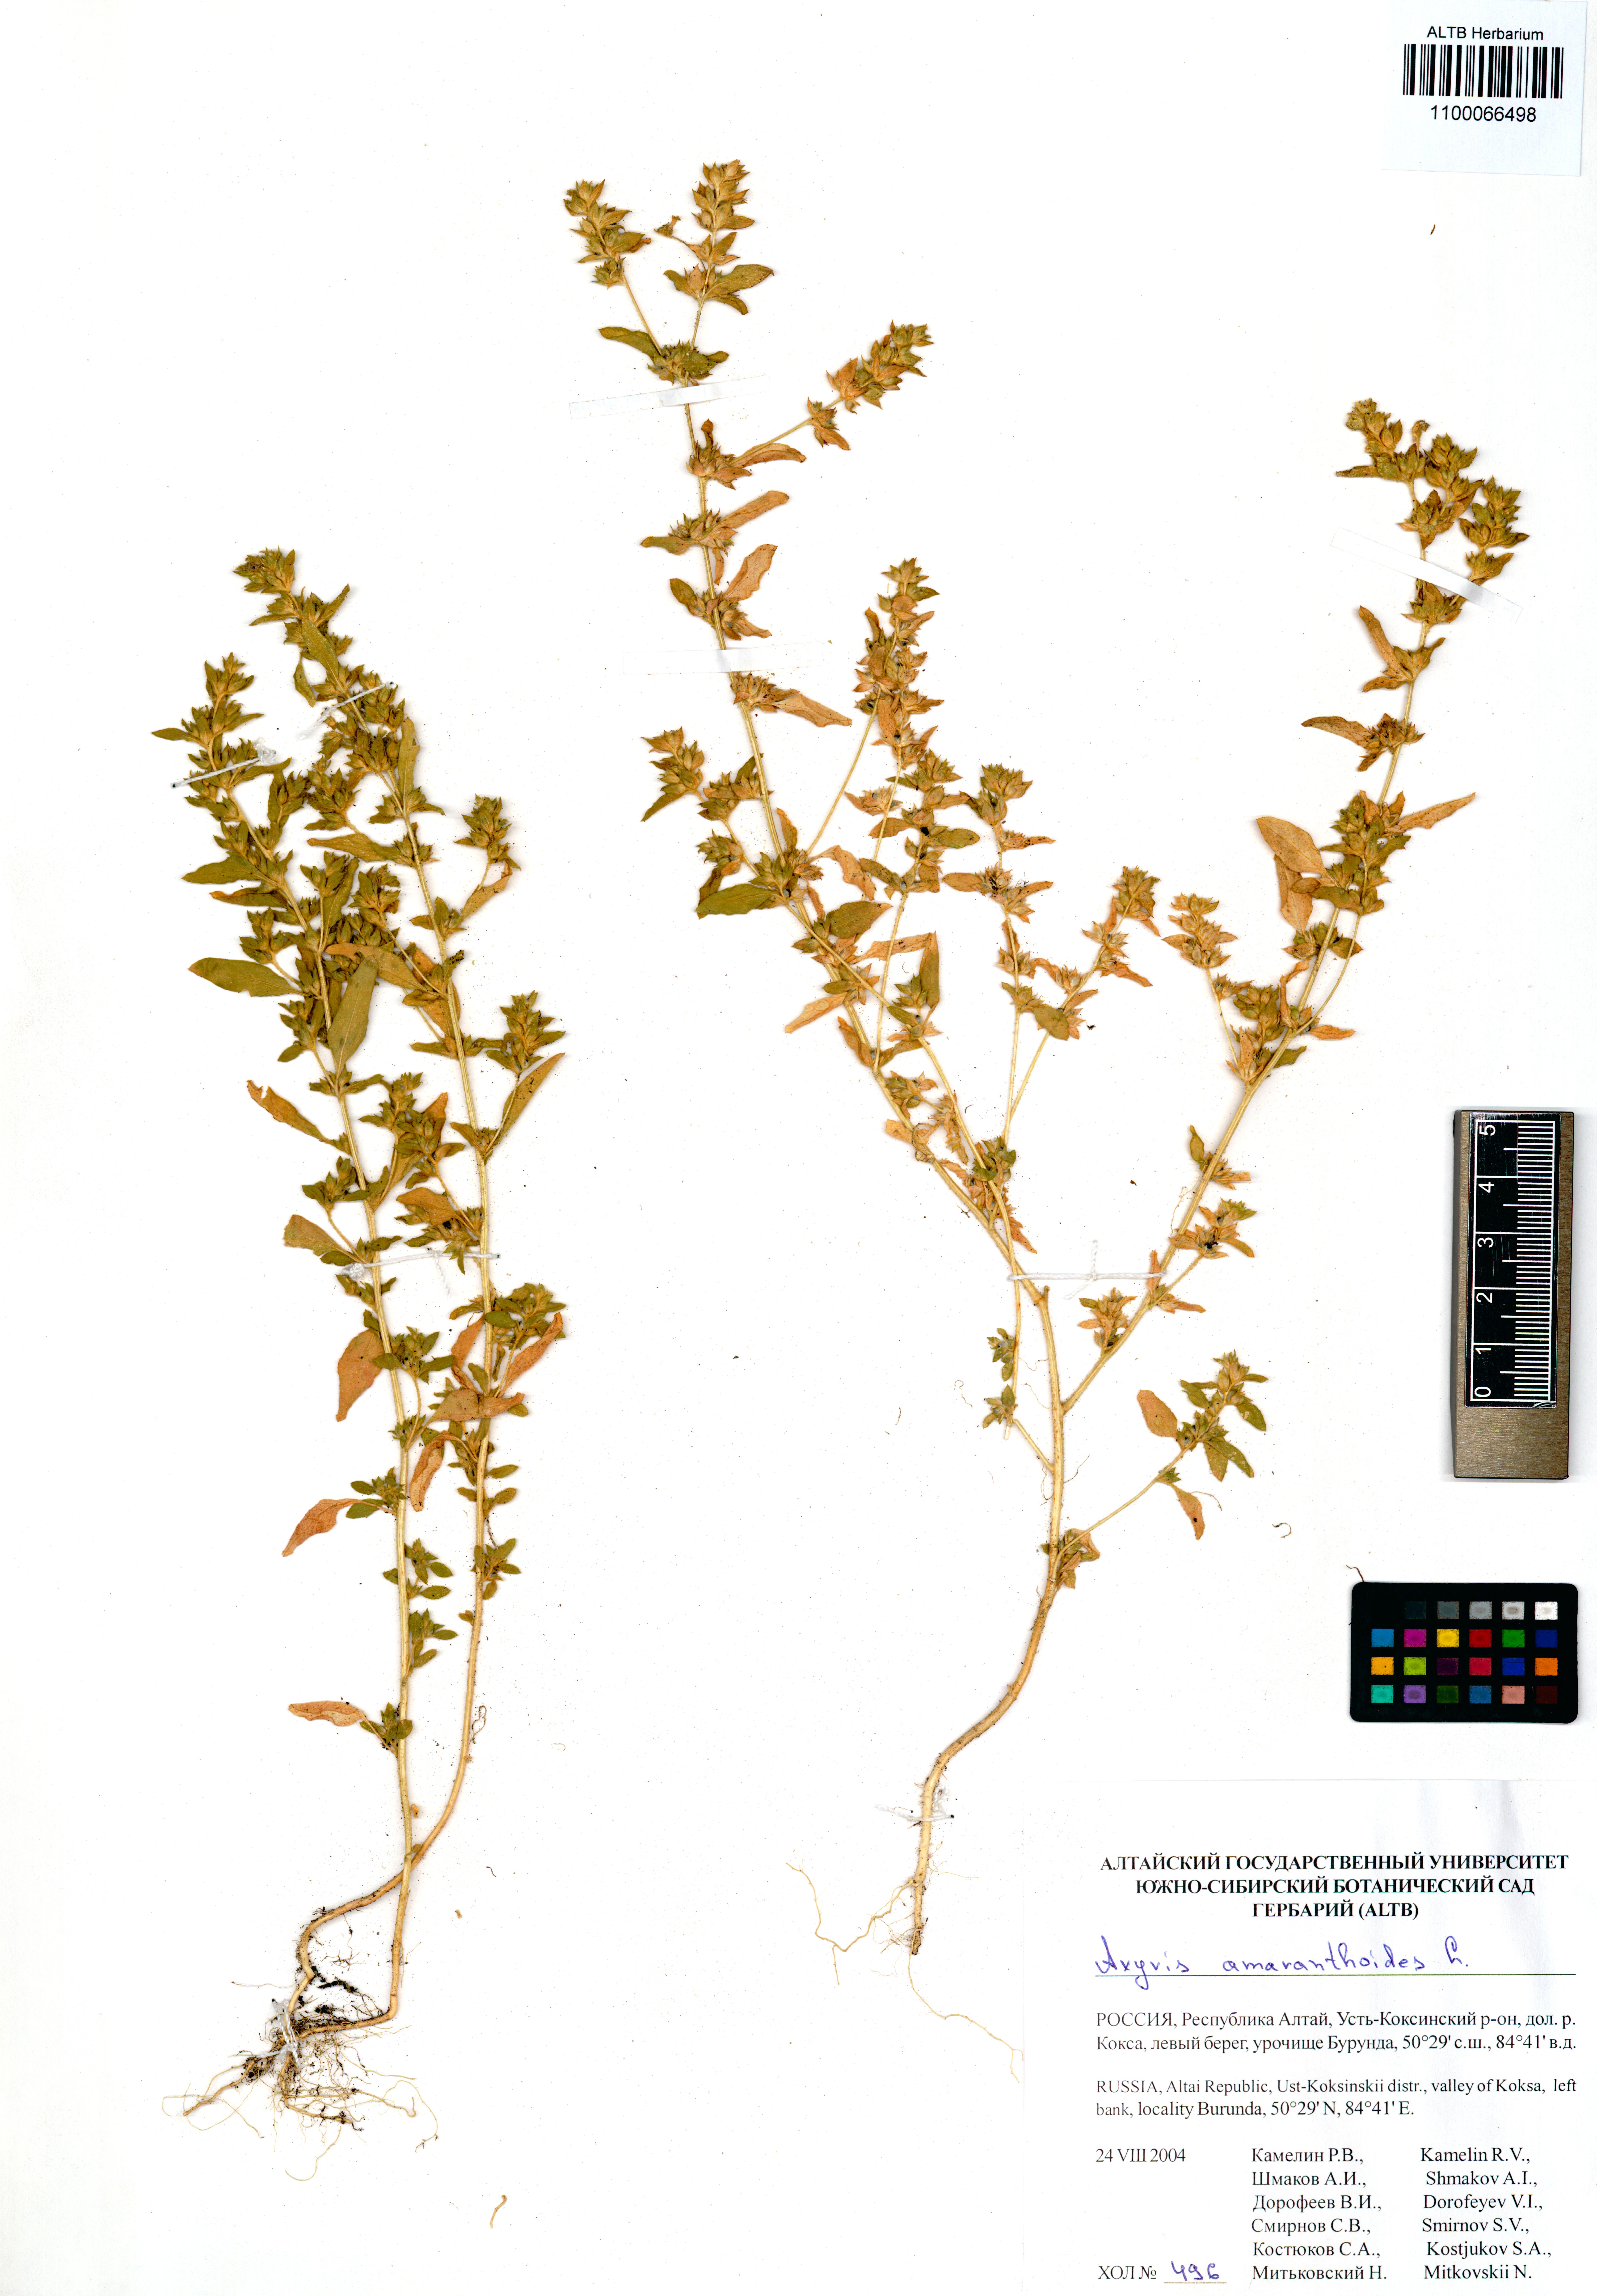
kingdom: Plantae
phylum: Tracheophyta
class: Magnoliopsida
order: Caryophyllales
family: Amaranthaceae
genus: Axyris
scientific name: Axyris amaranthoides
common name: Russian pigweed
